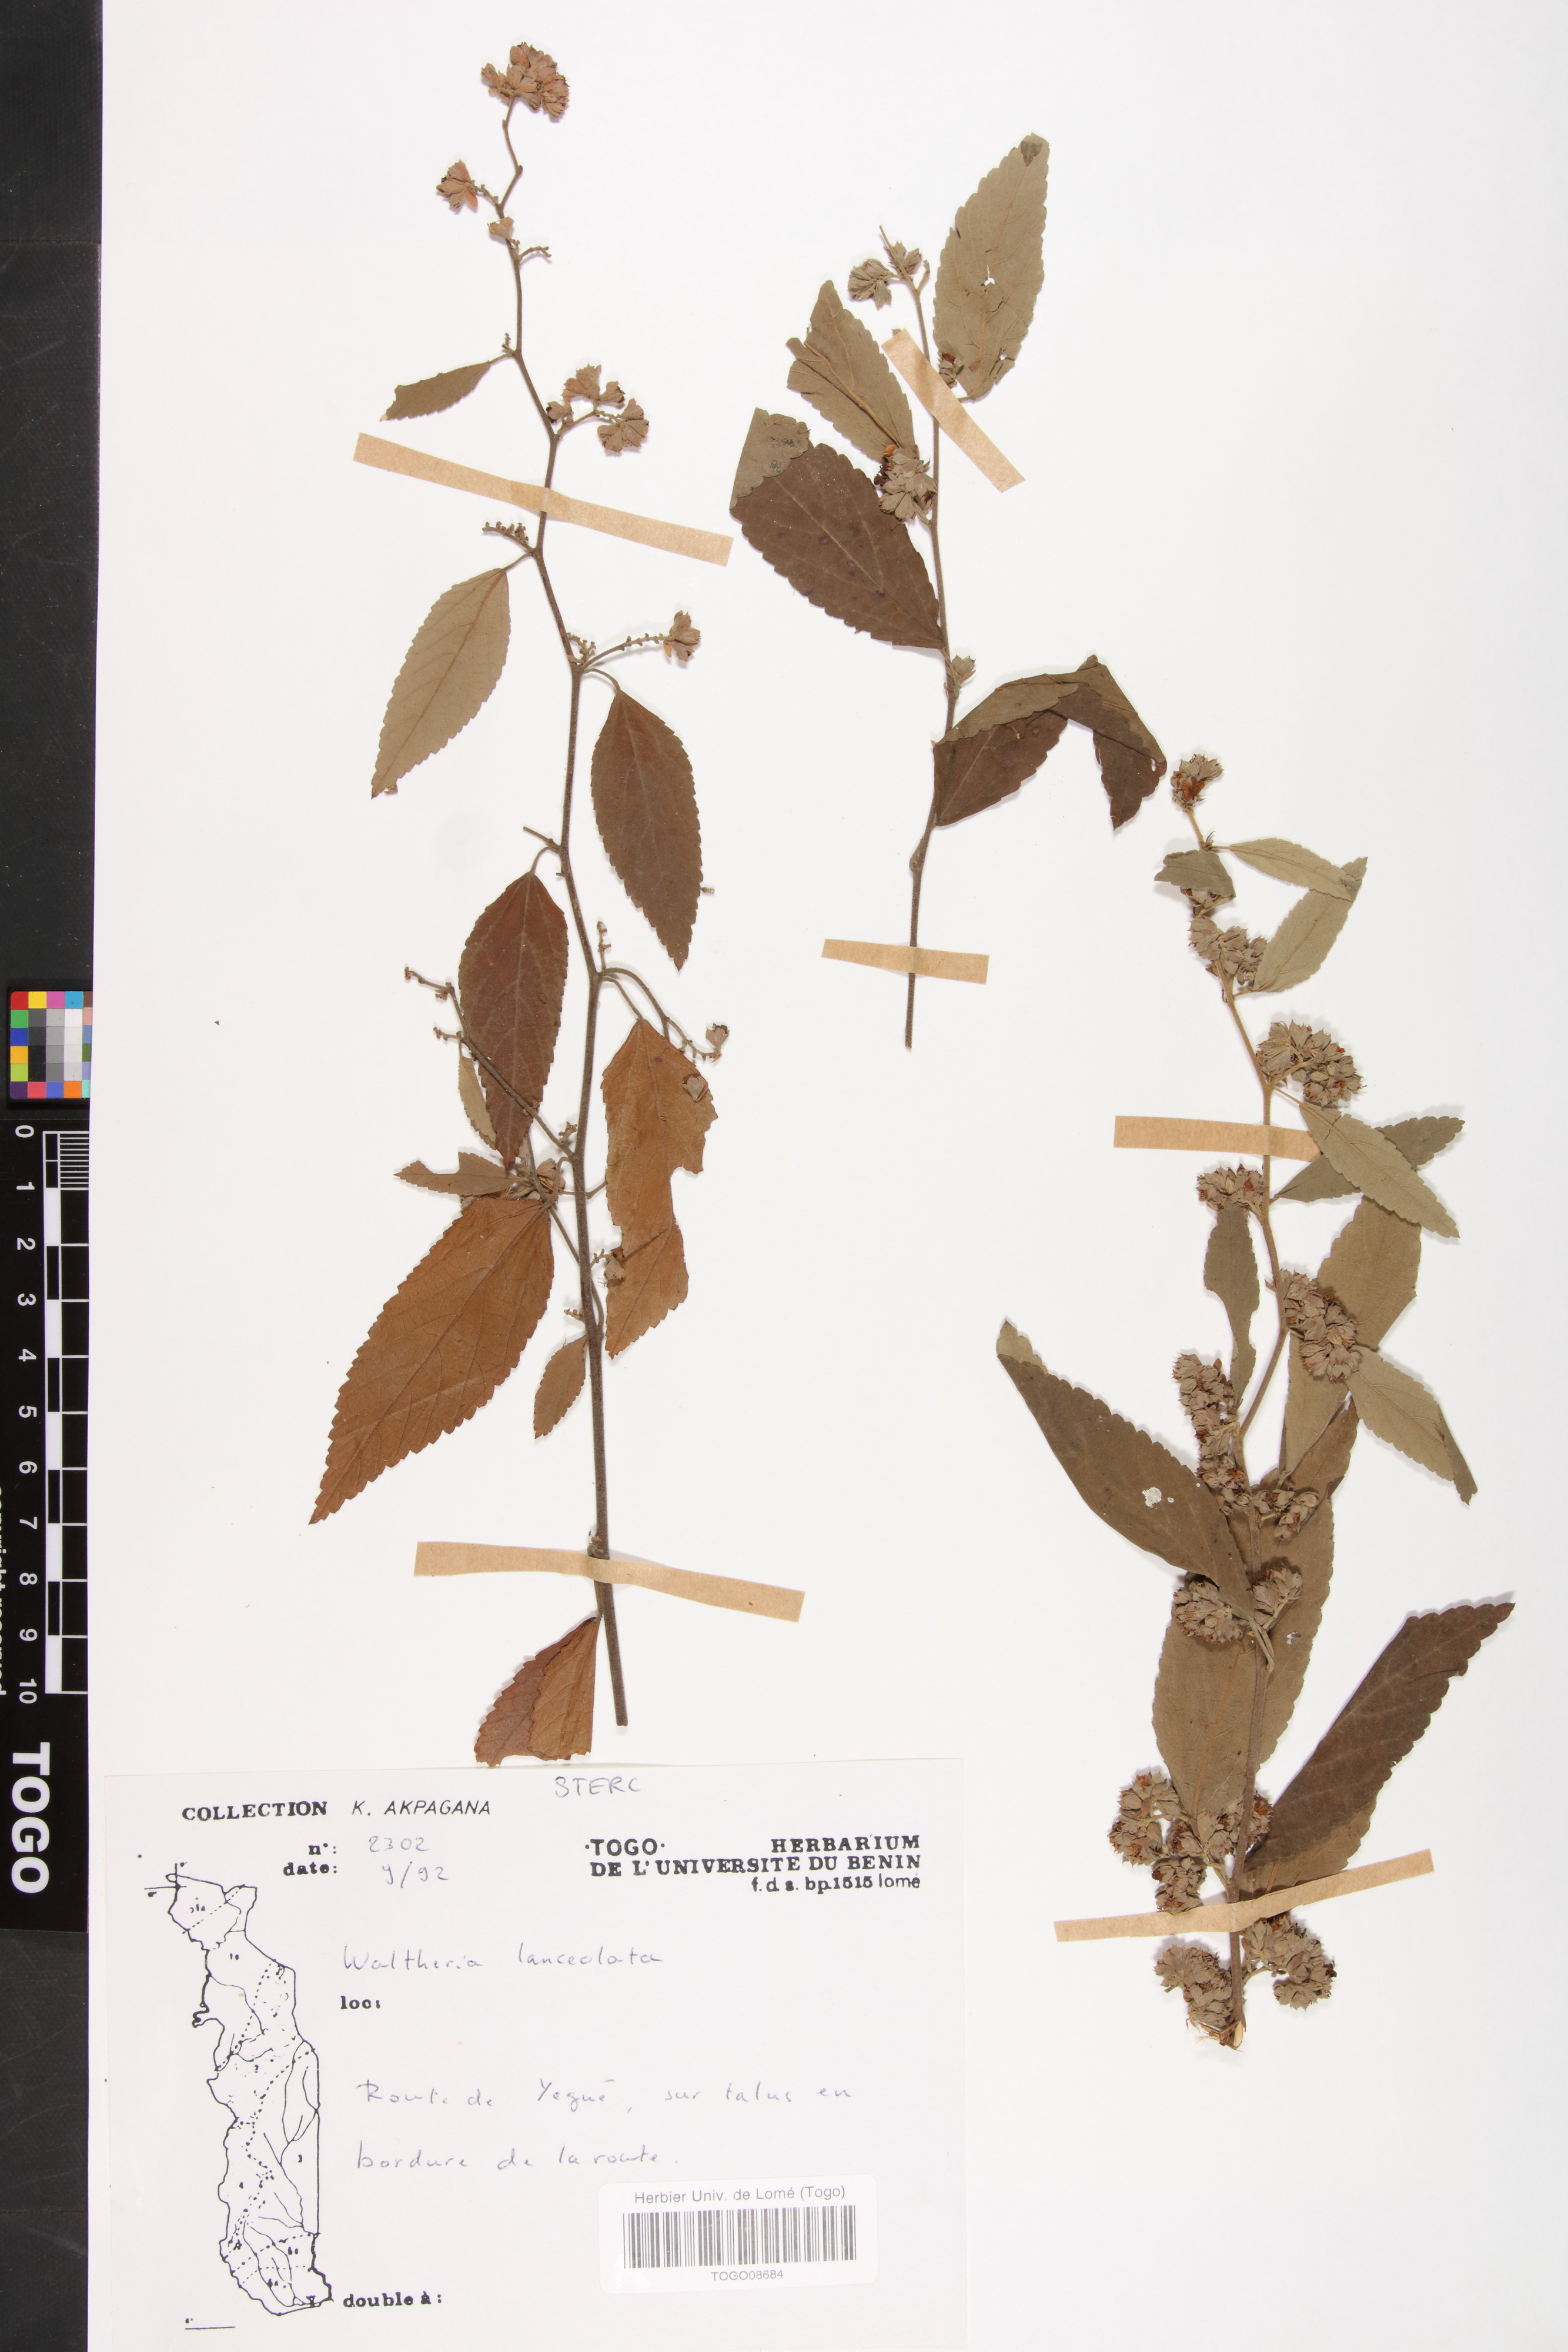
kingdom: Plantae
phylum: Tracheophyta
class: Magnoliopsida
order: Malvales
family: Malvaceae
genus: Waltheria
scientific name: Waltheria indica
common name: Leather-coat
